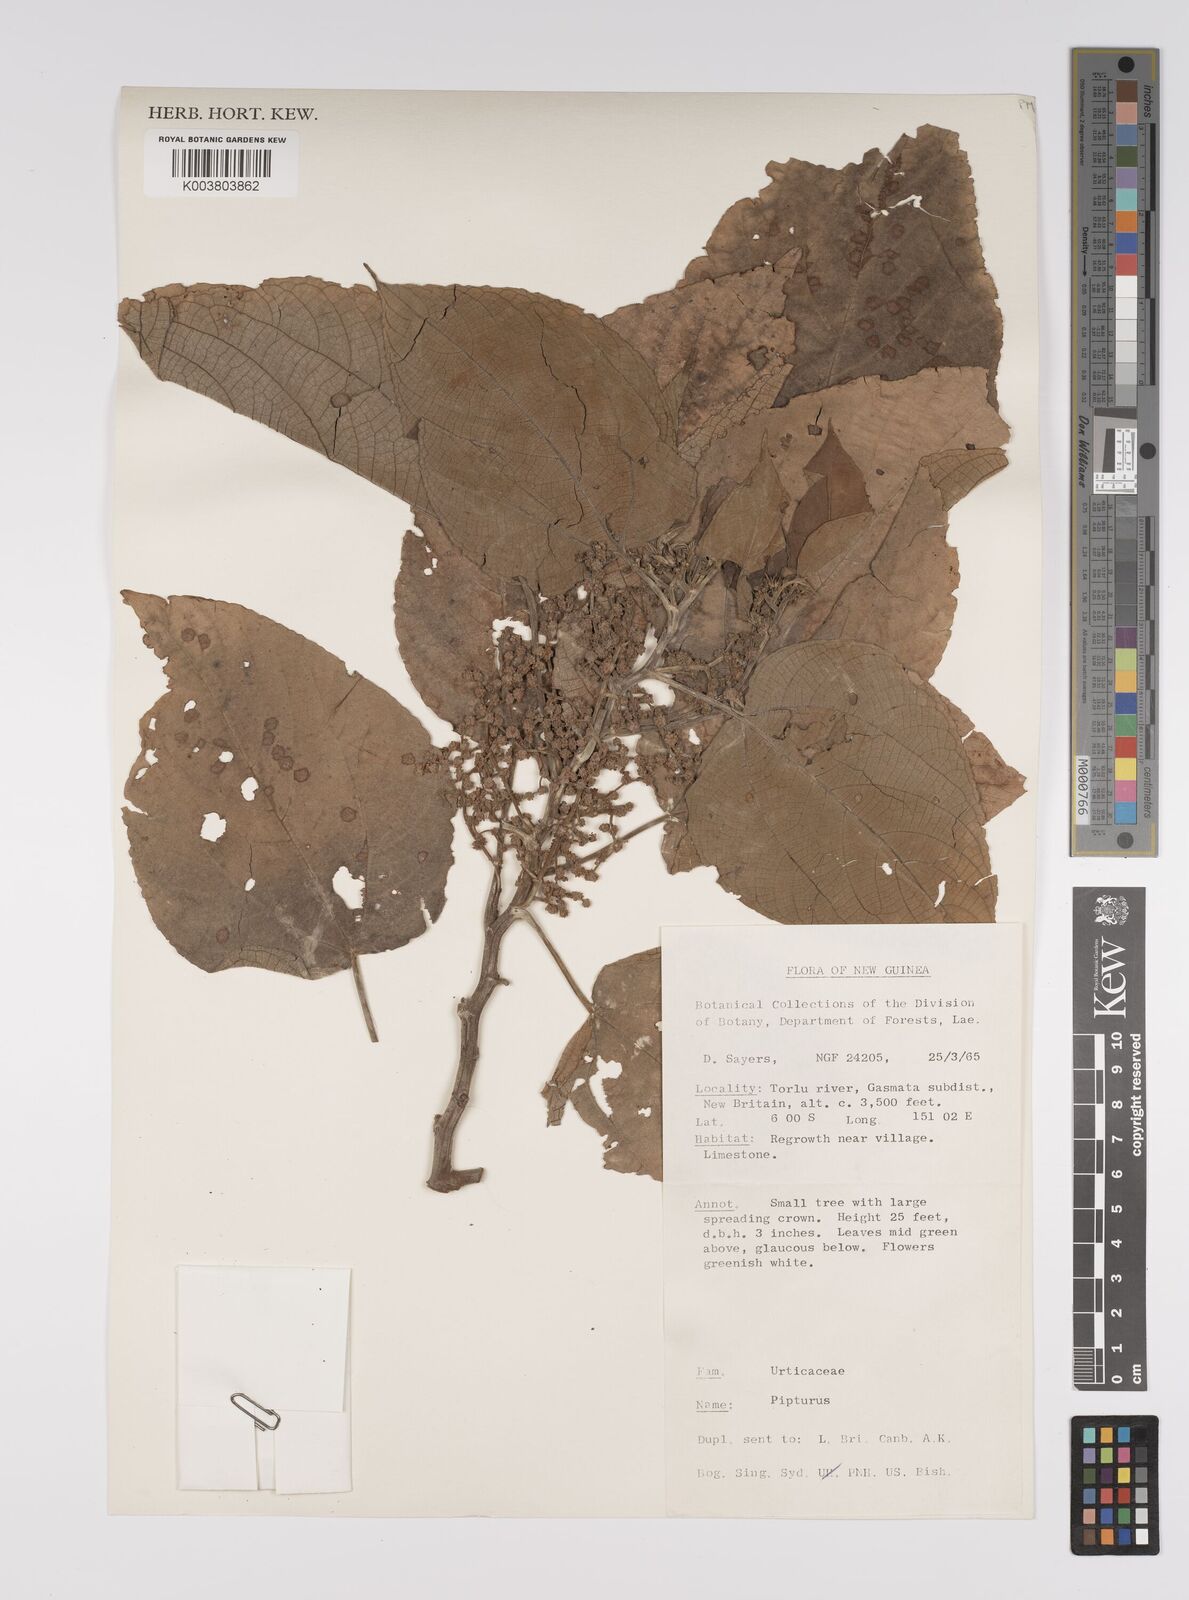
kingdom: Plantae
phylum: Tracheophyta
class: Magnoliopsida
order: Rosales
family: Urticaceae
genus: Pipturus
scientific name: Pipturus argenteus
